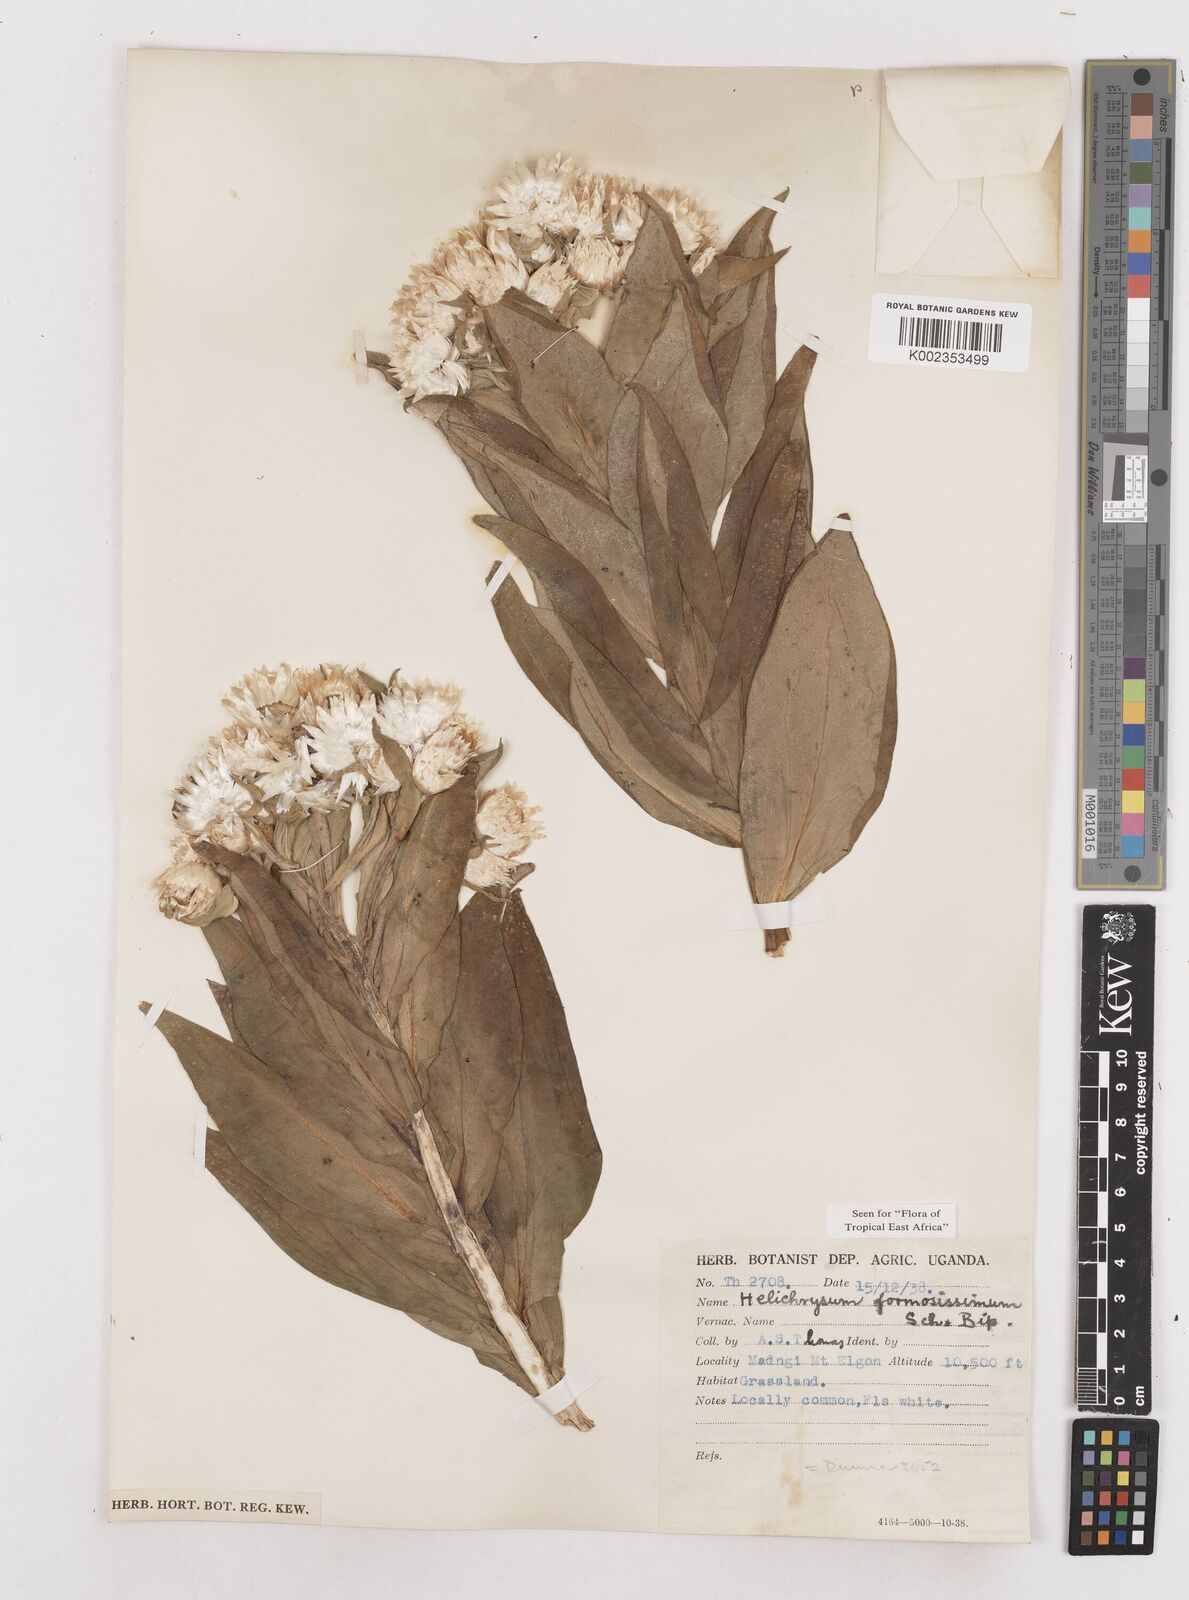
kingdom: Plantae
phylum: Tracheophyta
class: Magnoliopsida
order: Asterales
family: Asteraceae
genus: Helichrysum
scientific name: Helichrysum formosissimum
